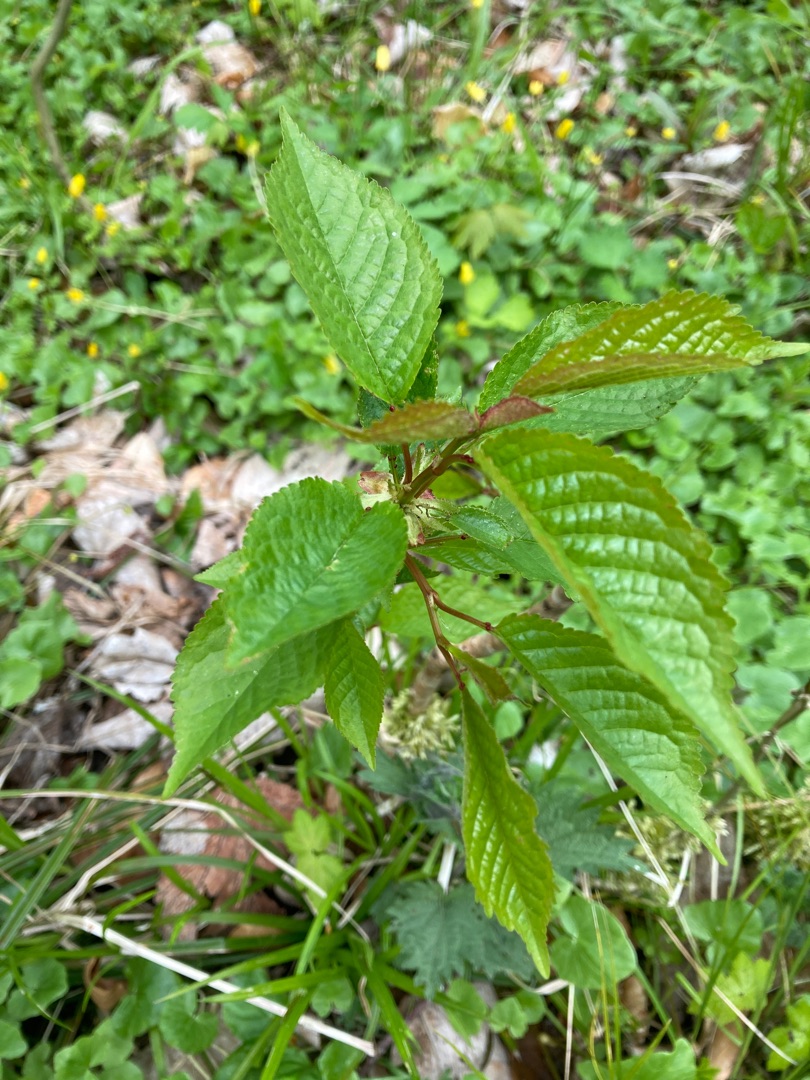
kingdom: Plantae
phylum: Tracheophyta
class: Magnoliopsida
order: Rosales
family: Rosaceae
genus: Prunus
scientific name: Prunus avium
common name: Fugle-kirsebær
